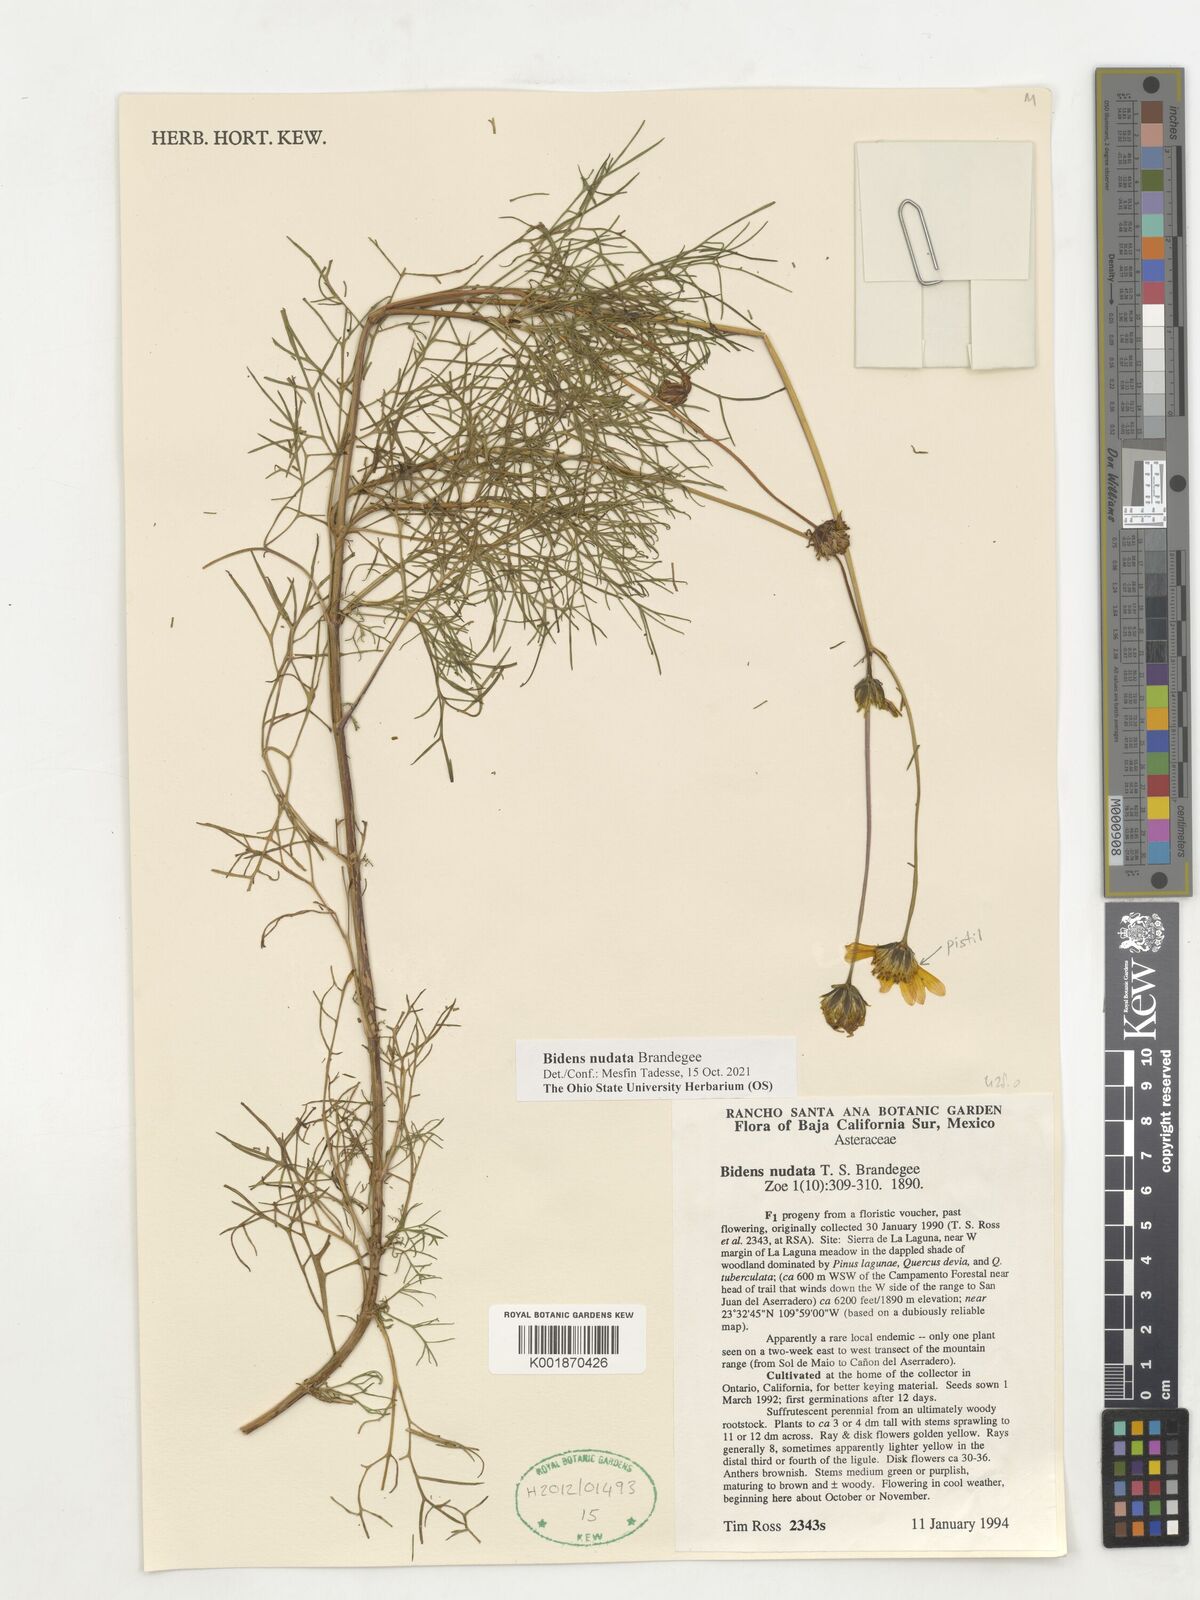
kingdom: Plantae
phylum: Tracheophyta
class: Magnoliopsida
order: Asterales
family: Asteraceae
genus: Bidens
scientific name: Bidens nudata
